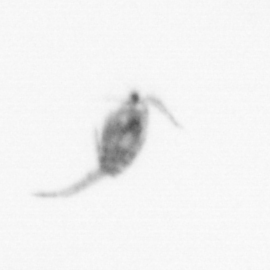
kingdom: Animalia
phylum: Arthropoda
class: Copepoda
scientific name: Copepoda
